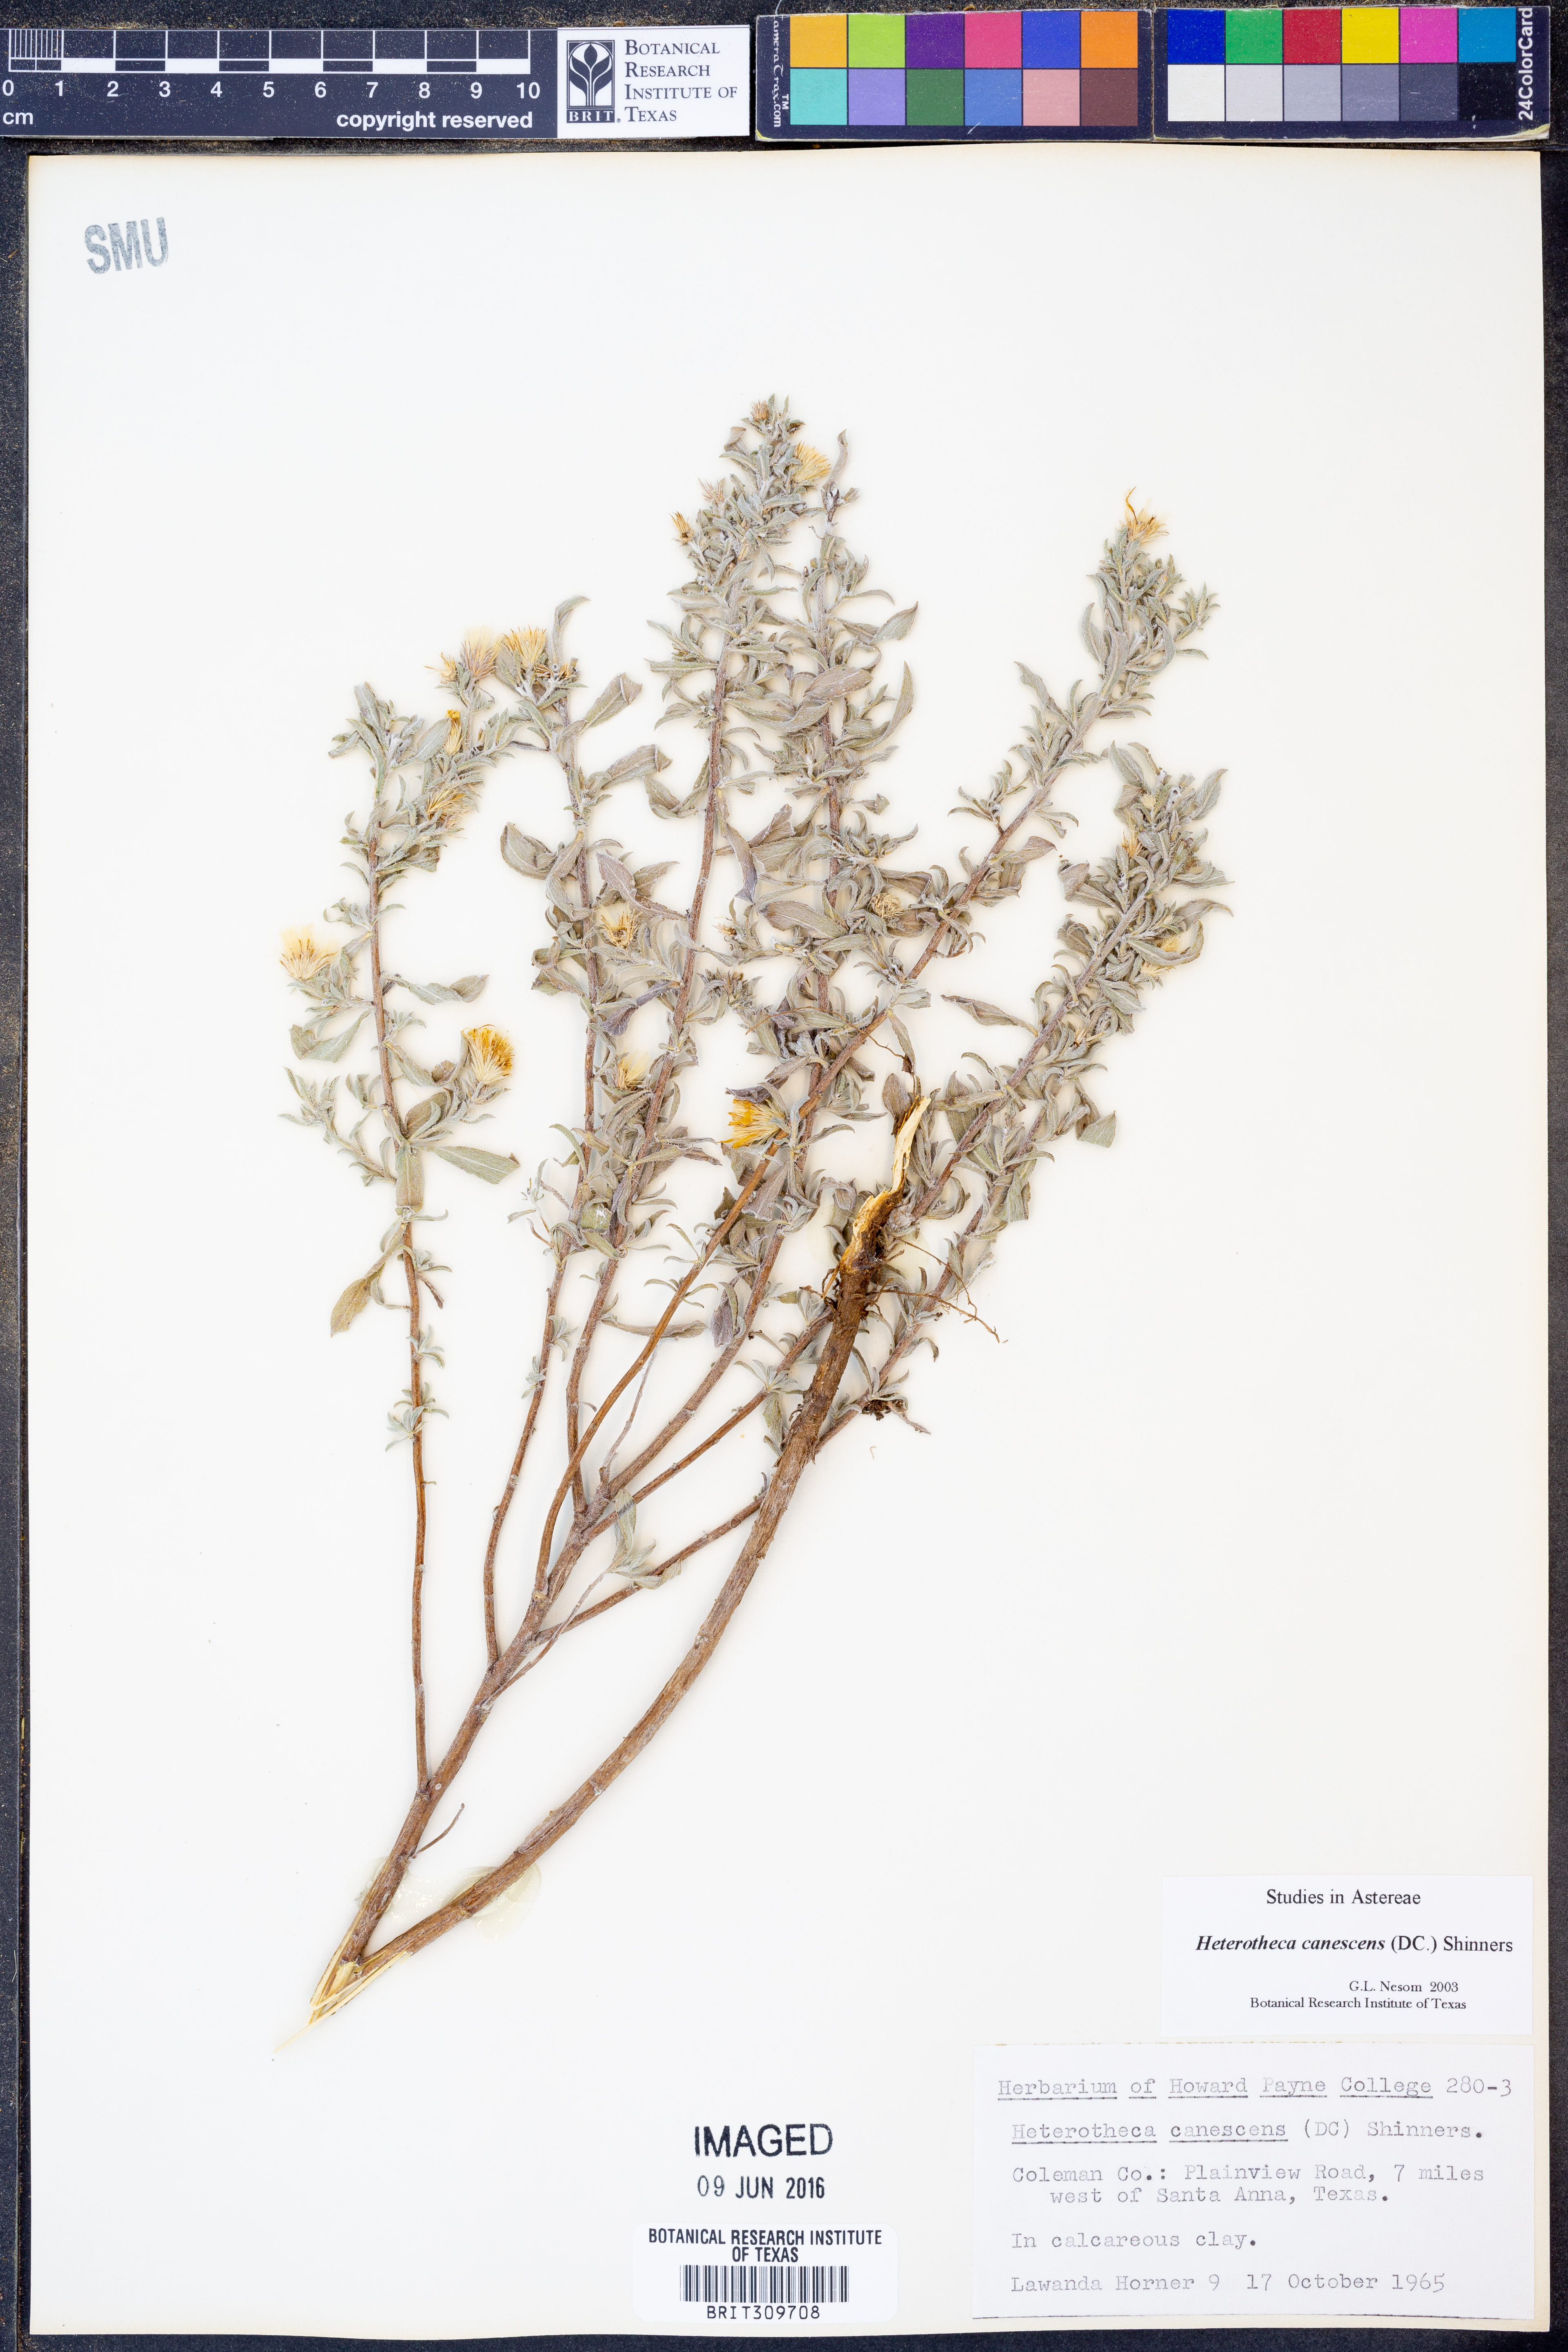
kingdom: Plantae
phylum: Tracheophyta
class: Magnoliopsida
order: Asterales
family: Asteraceae
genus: Heterotheca
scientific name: Heterotheca canescens
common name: Hoary golden-aster
